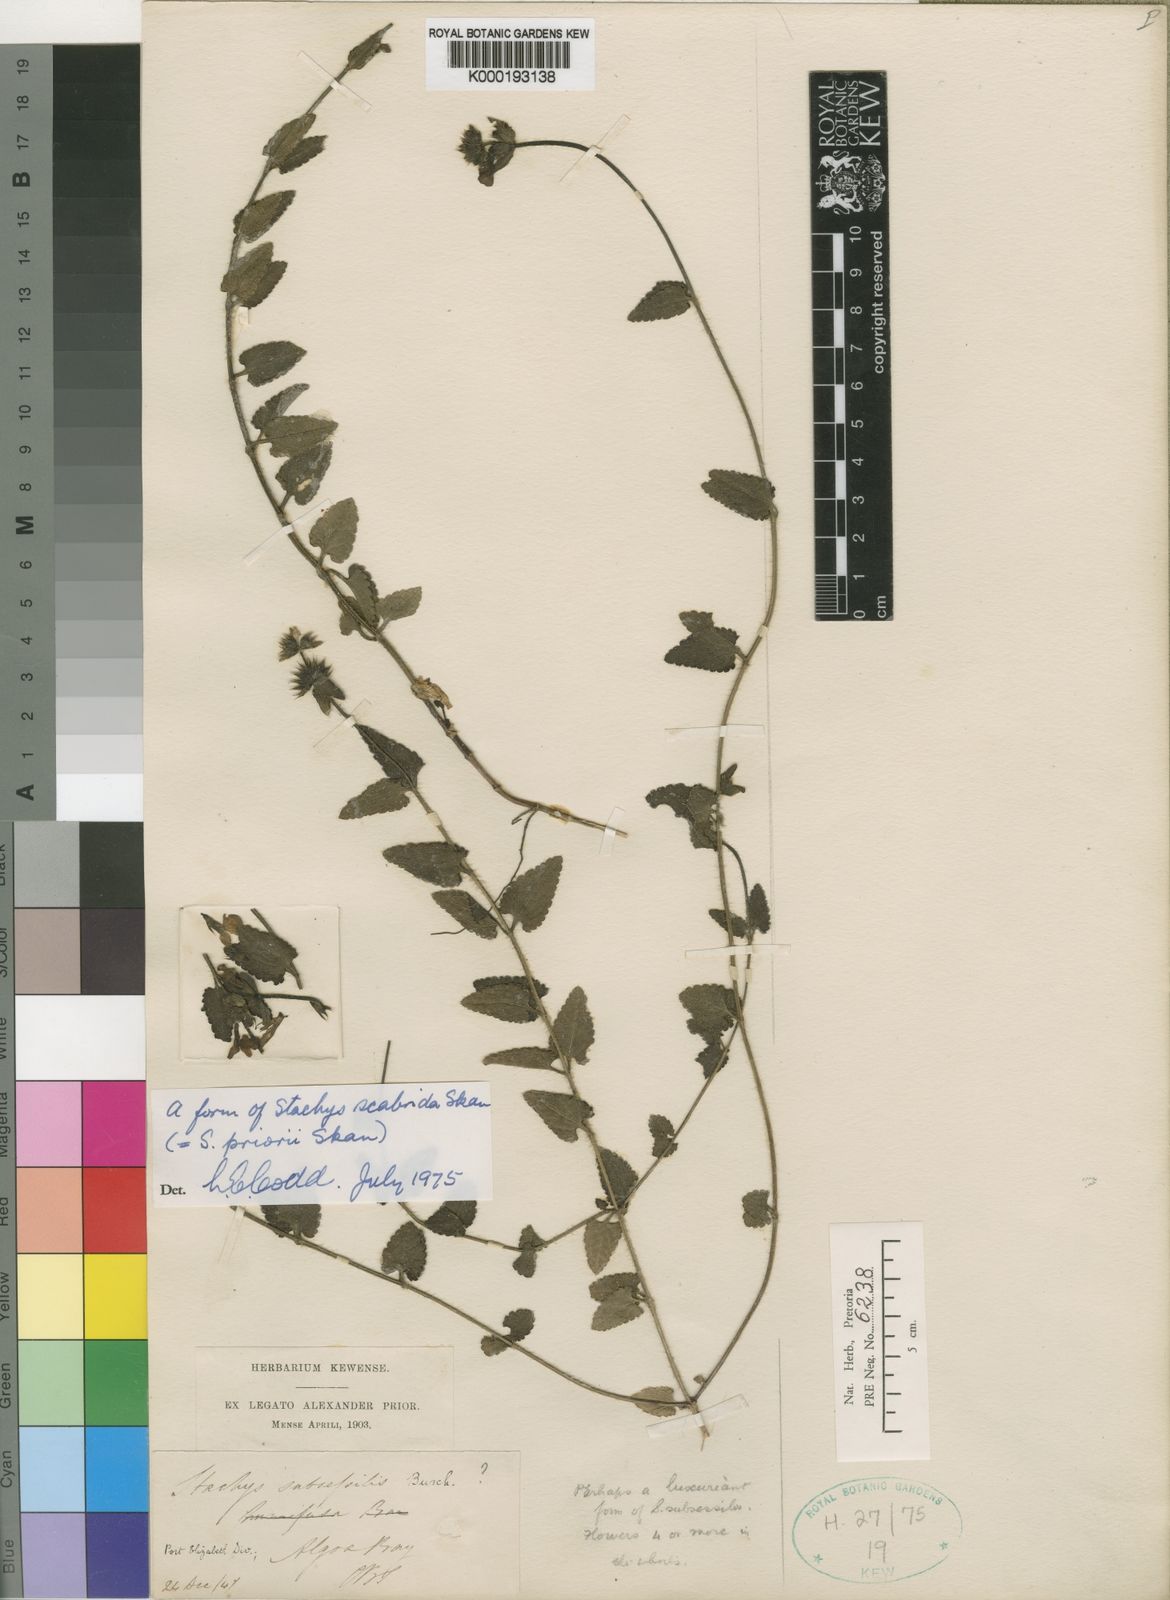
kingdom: Plantae
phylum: Tracheophyta
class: Magnoliopsida
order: Lamiales
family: Lamiaceae
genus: Stachys
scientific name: Stachys scabrida
